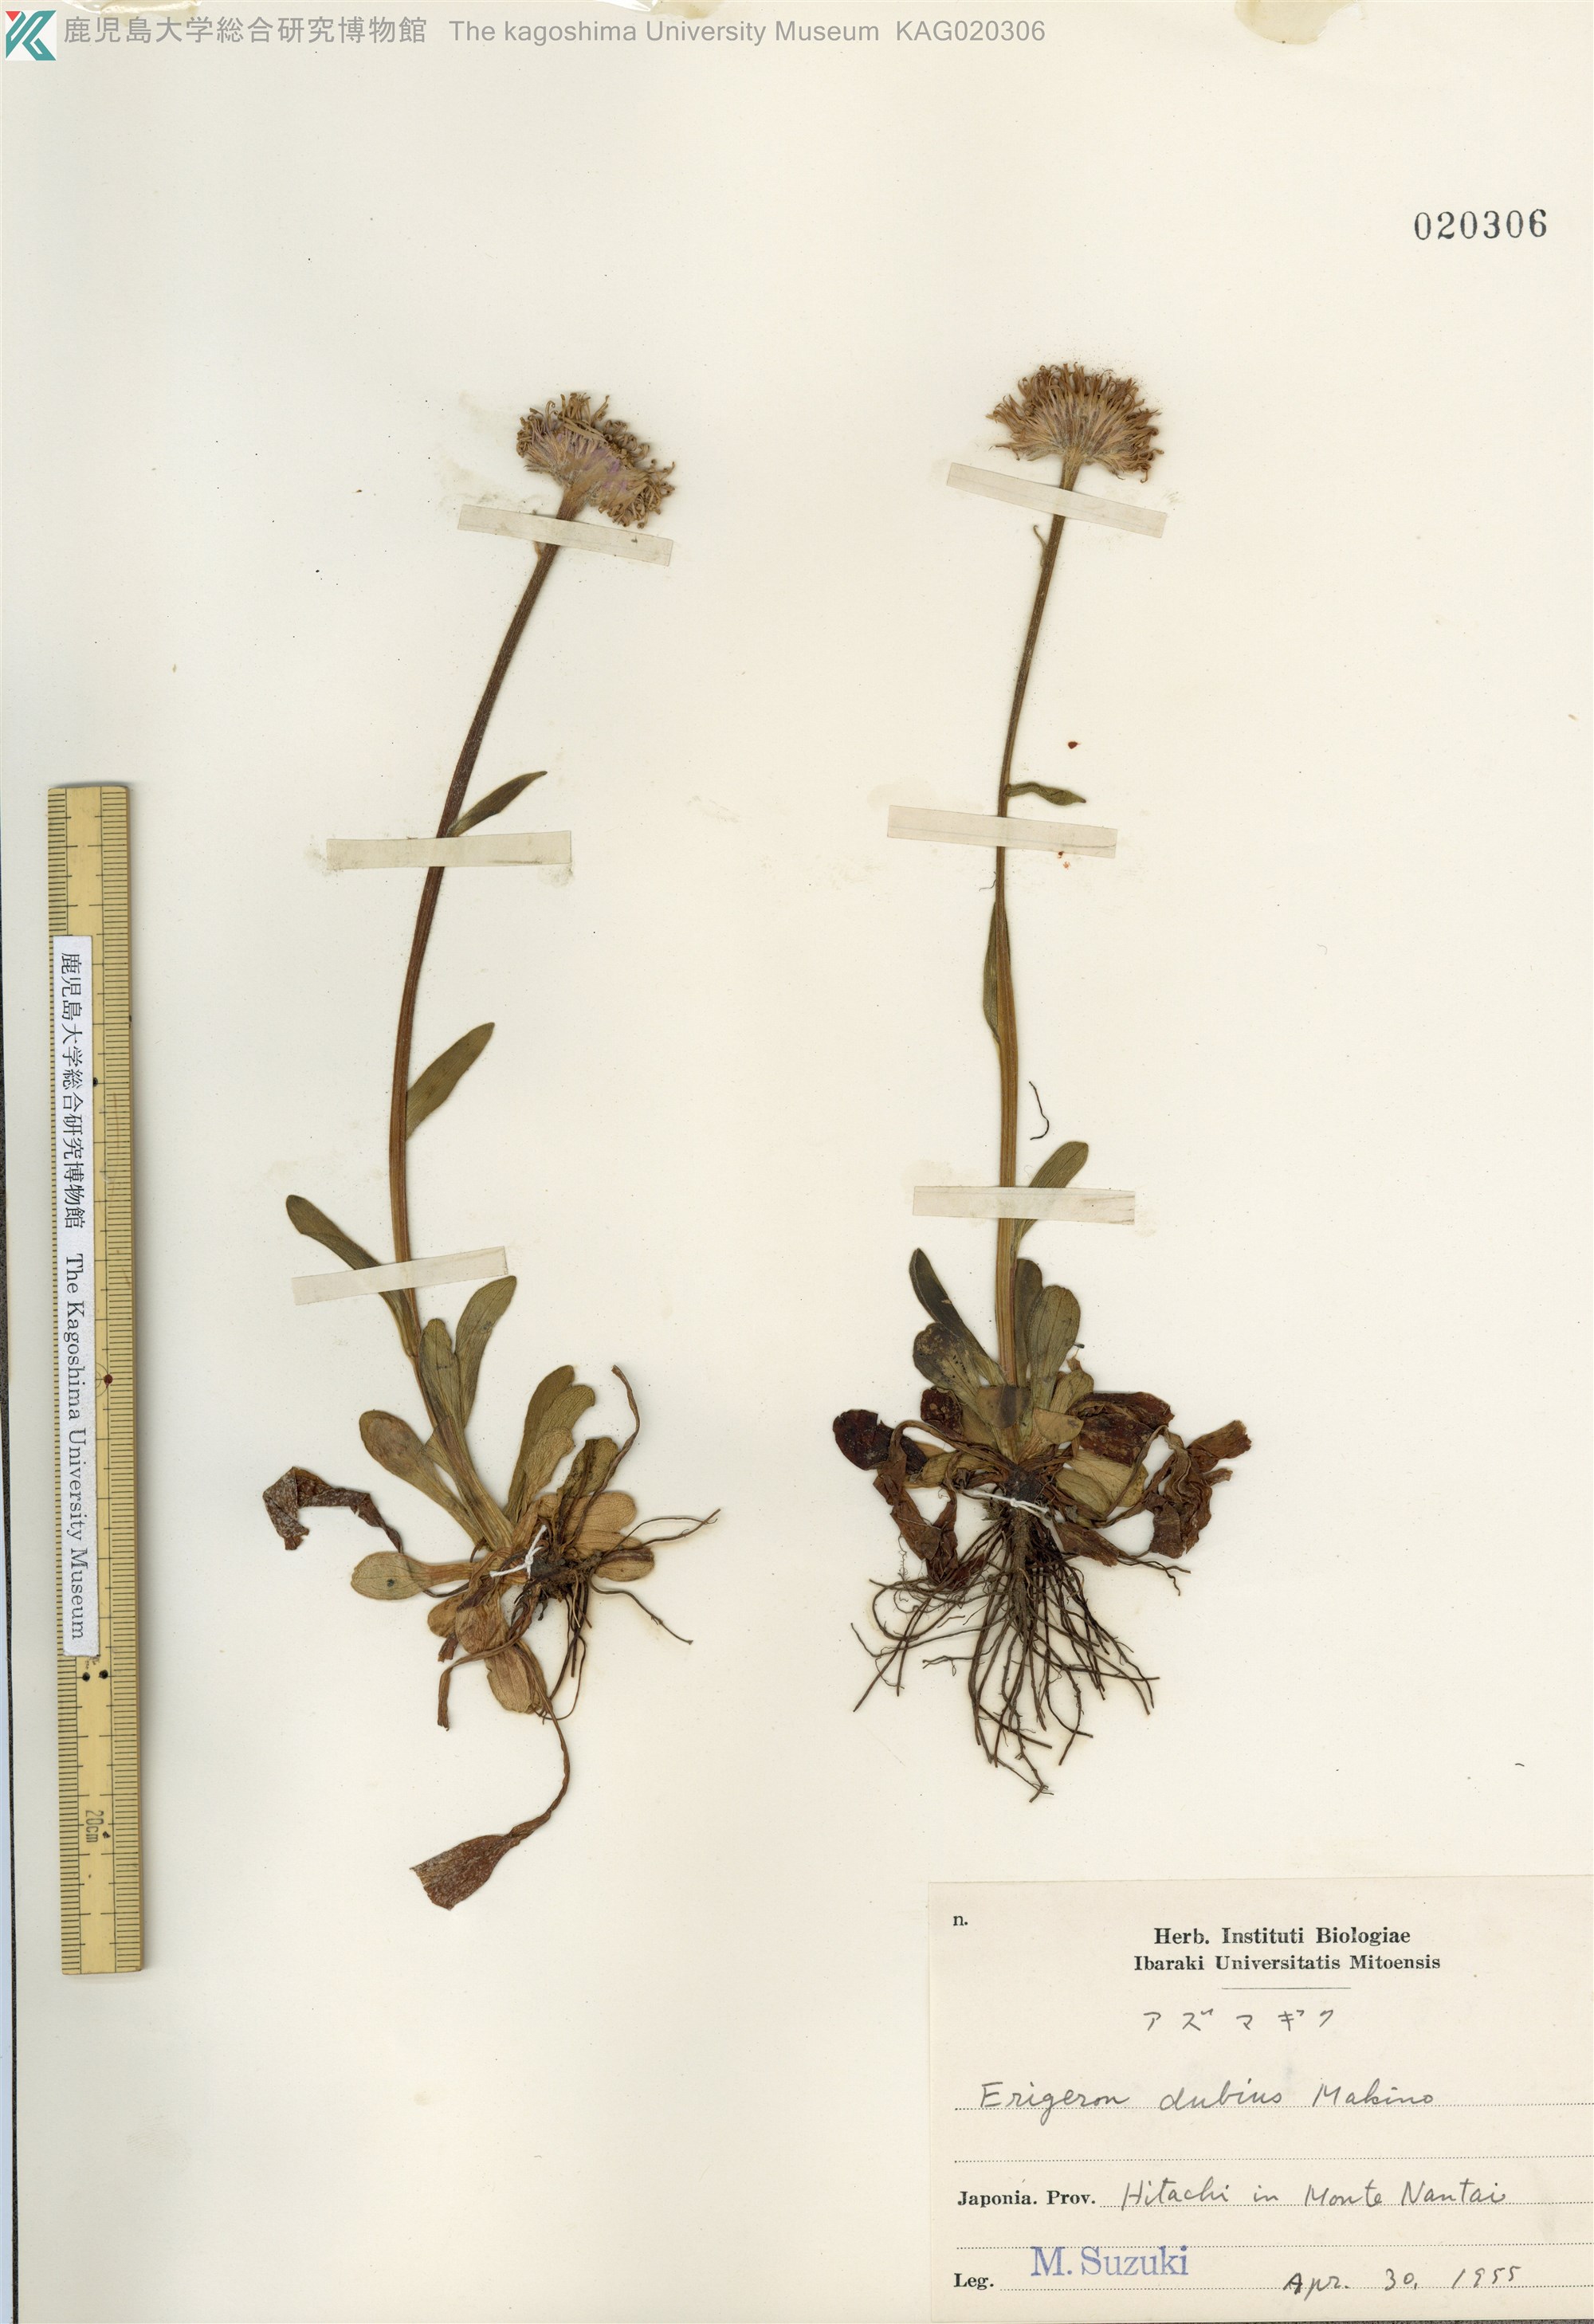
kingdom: Plantae
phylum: Tracheophyta
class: Magnoliopsida
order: Asterales
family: Asteraceae
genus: Erigeron
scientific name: Erigeron thunbergii
